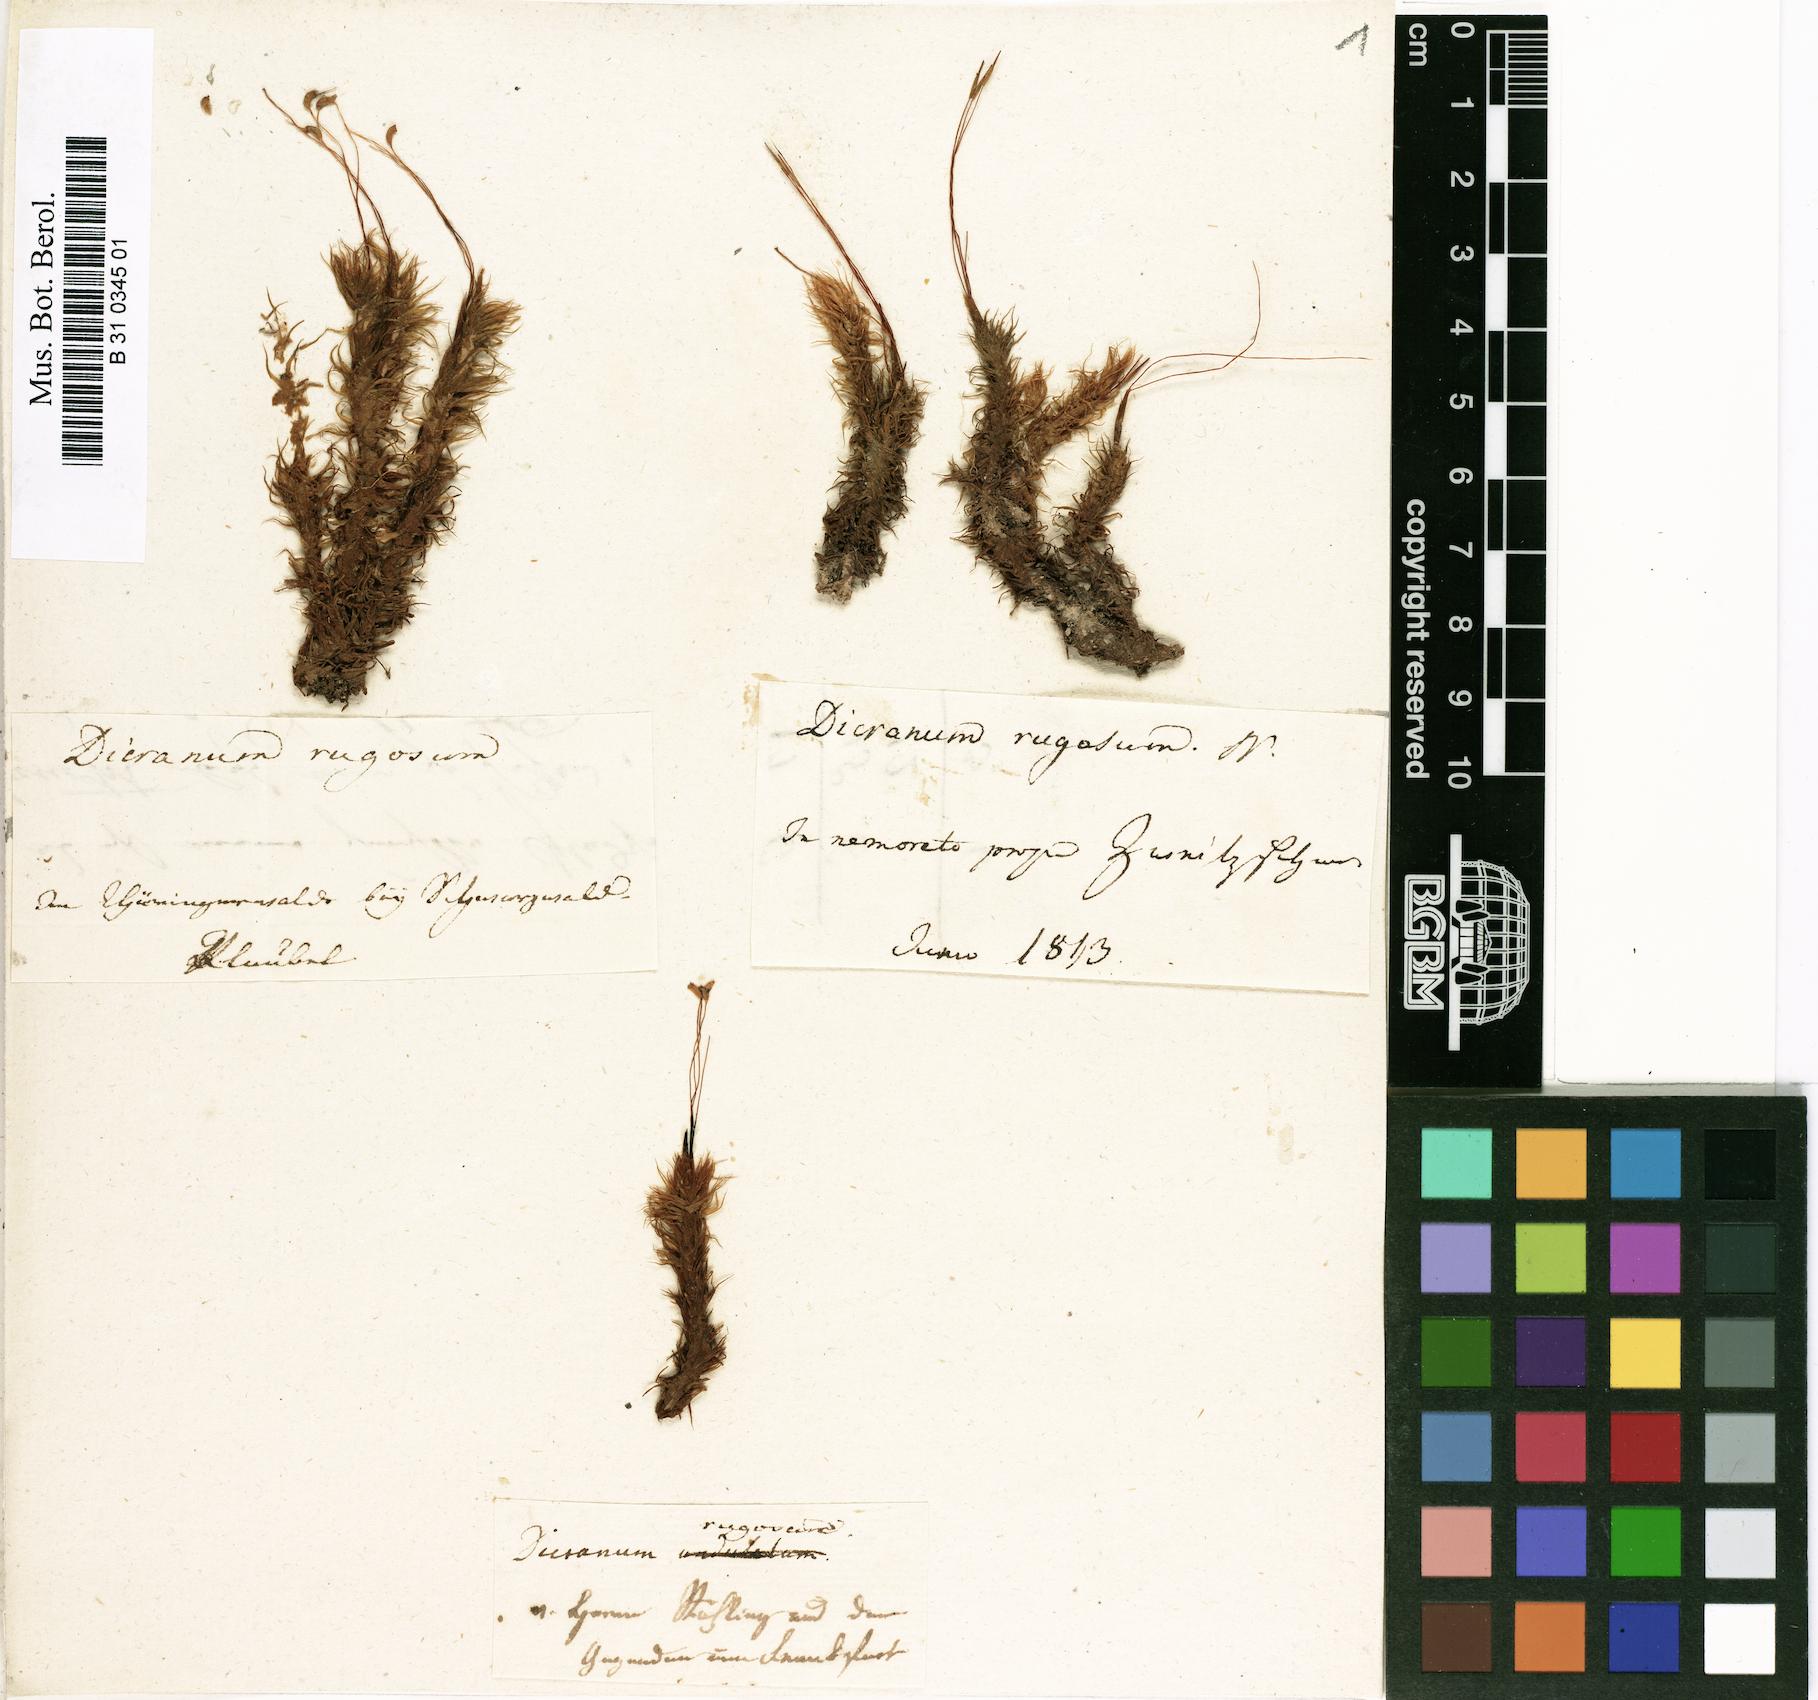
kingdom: Plantae
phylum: Bryophyta
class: Bryopsida
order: Dicranales
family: Dicranaceae
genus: Dicranum
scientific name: Dicranum polysetum
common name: Rugose fork-moss
